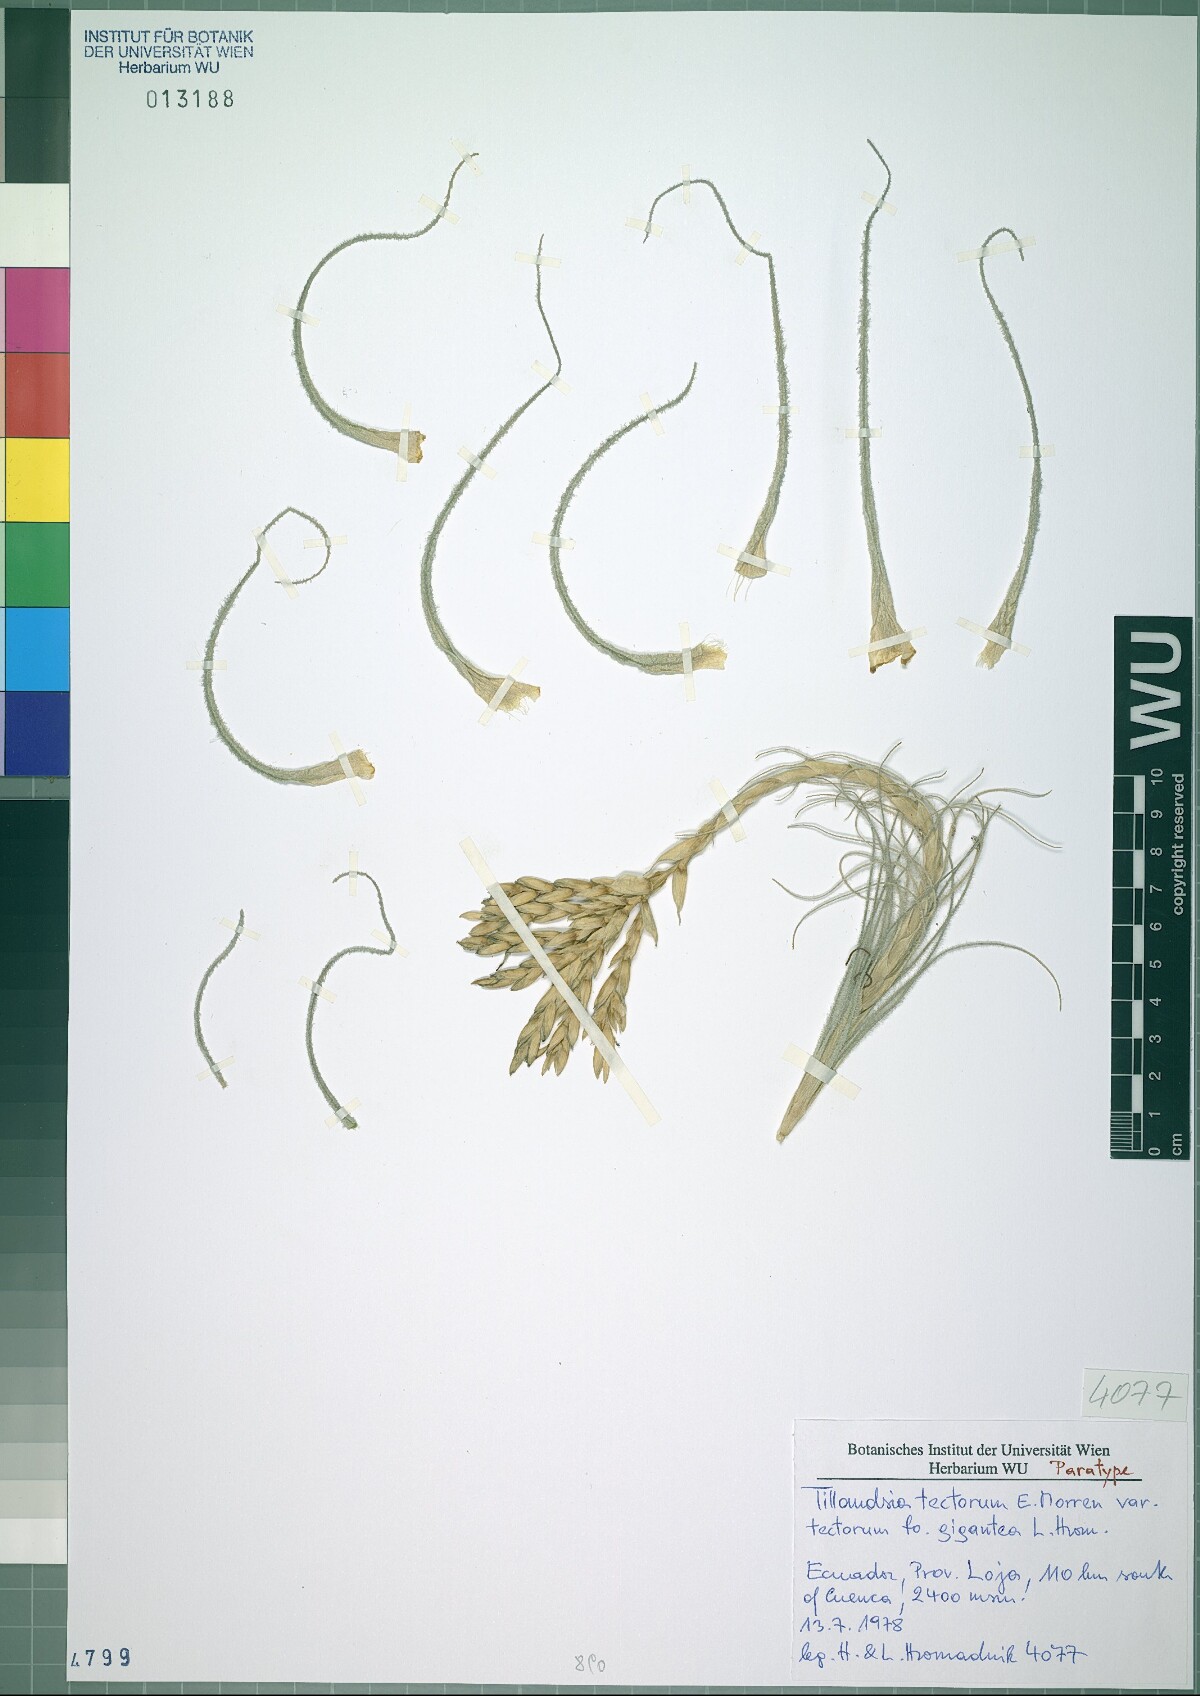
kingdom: Plantae
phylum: Tracheophyta
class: Liliopsida
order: Poales
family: Bromeliaceae
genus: Tillandsia
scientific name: Tillandsia tectorum
